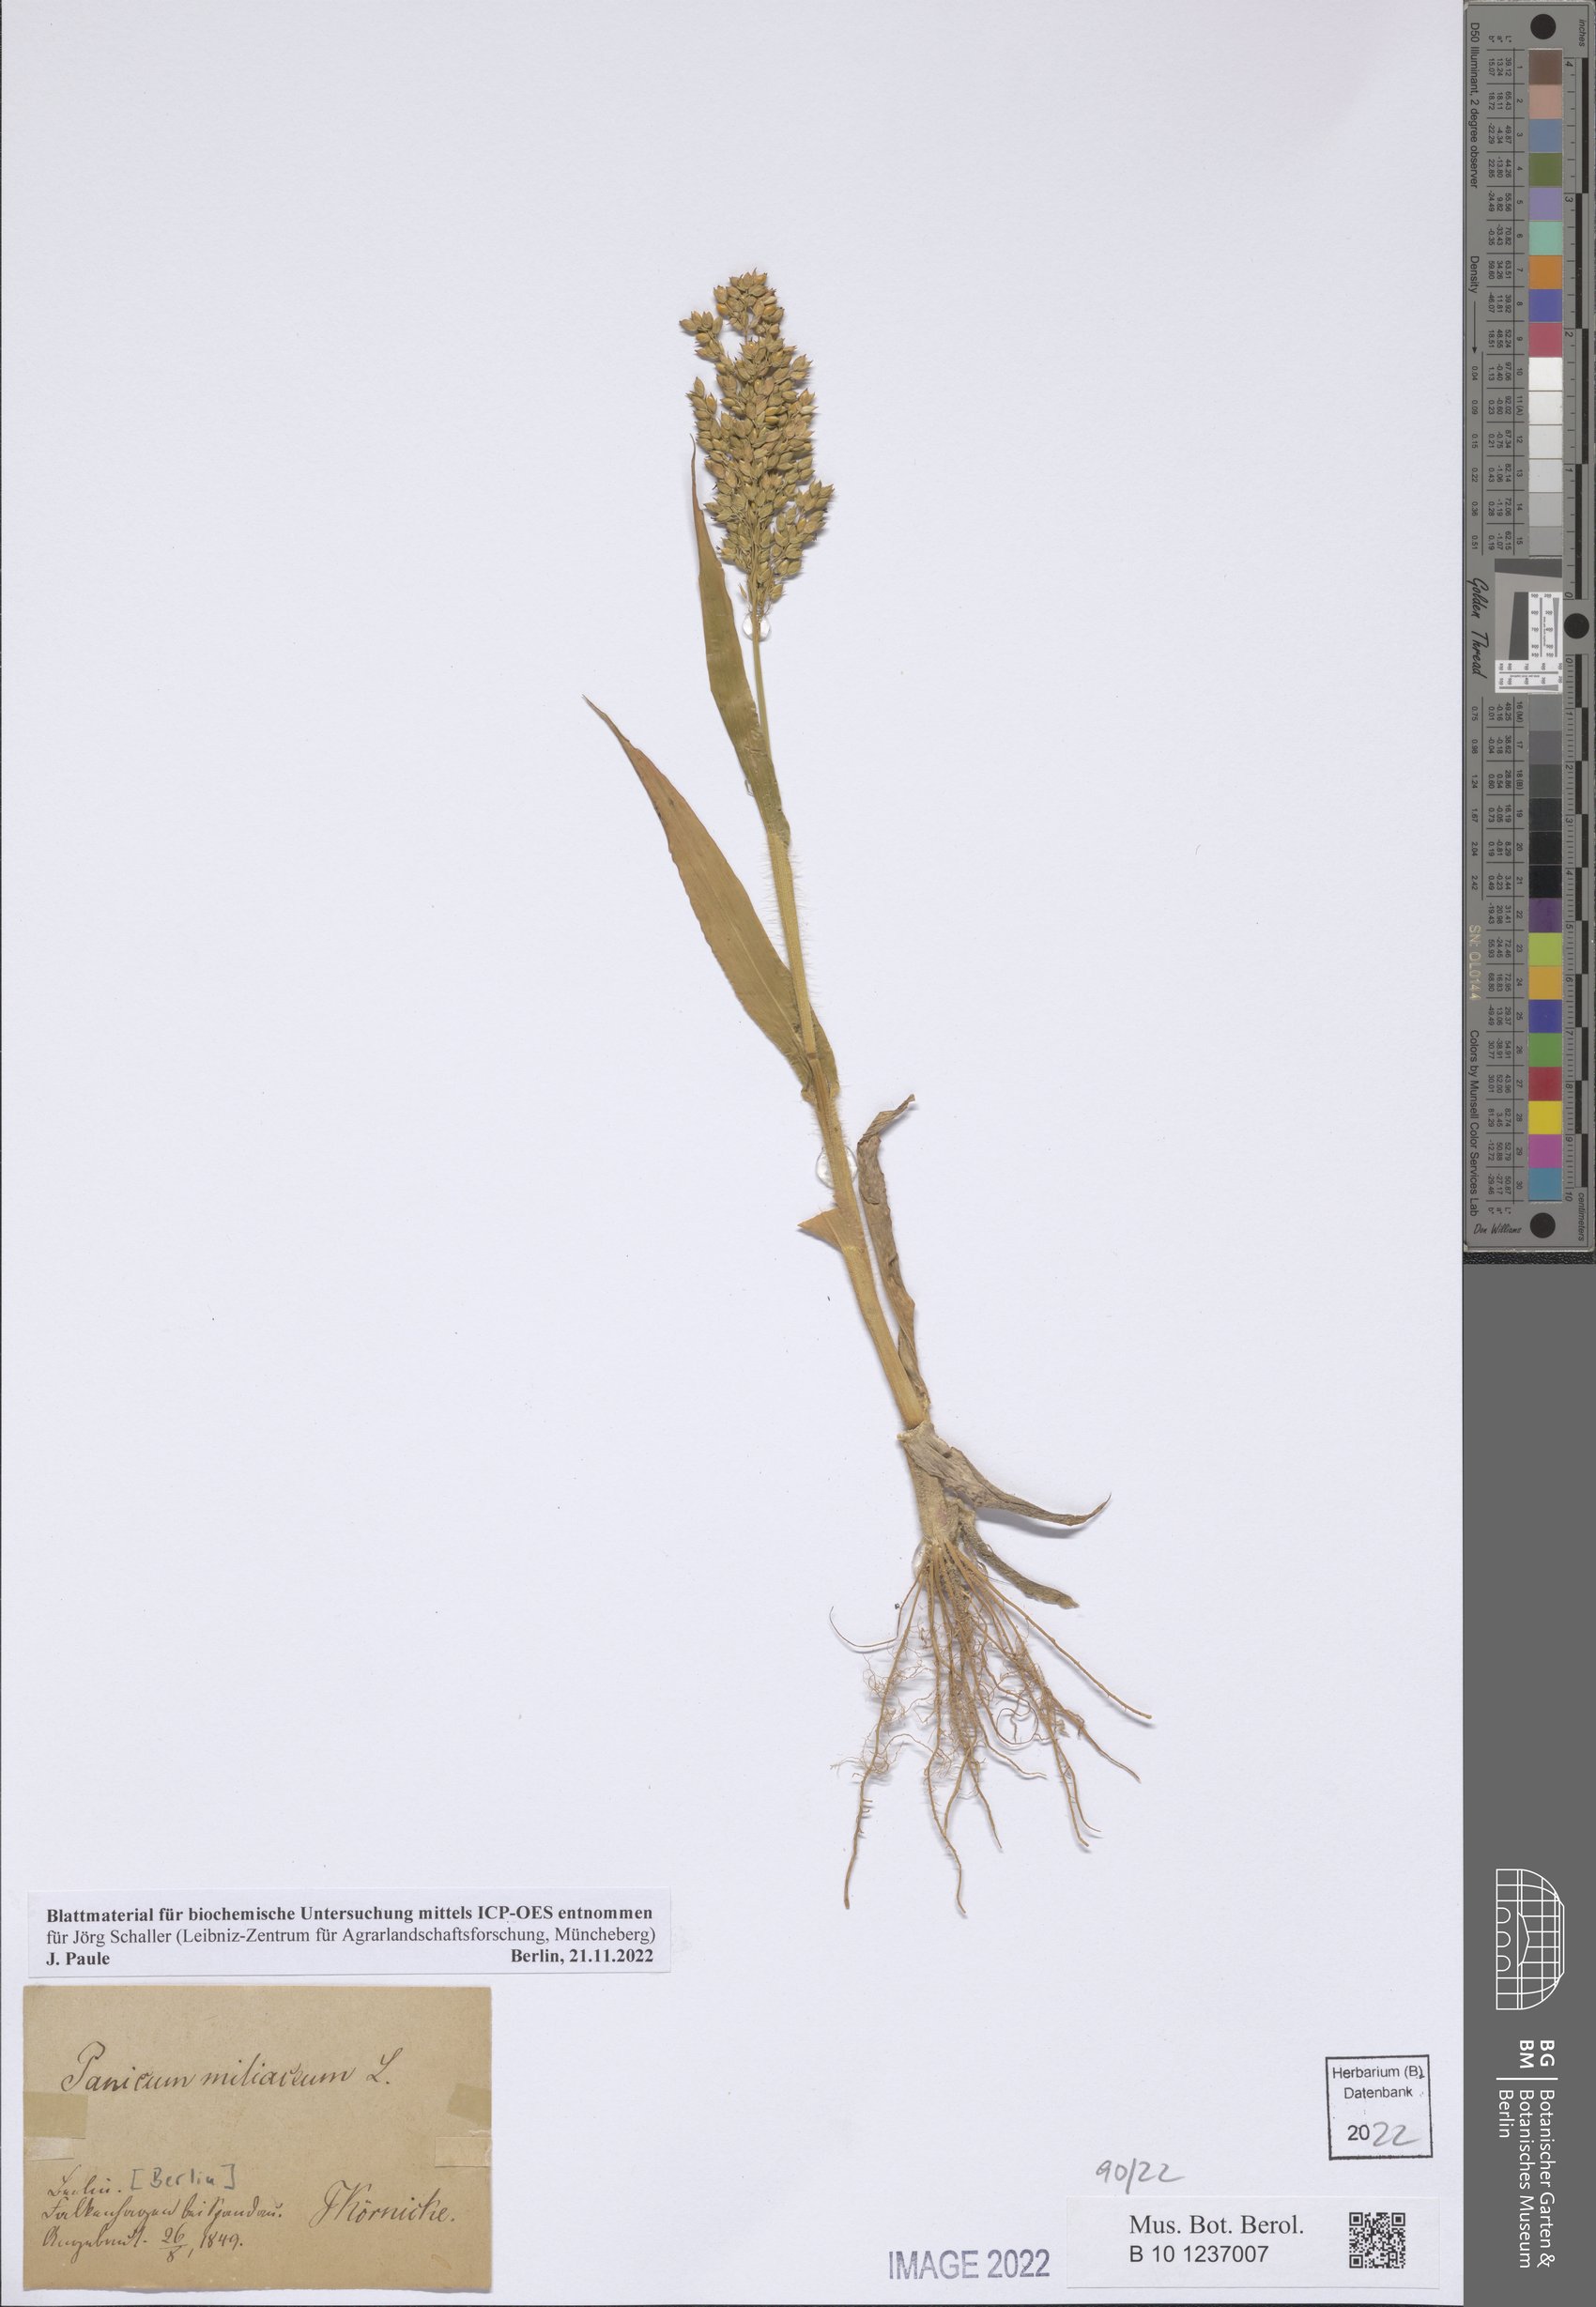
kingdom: Plantae
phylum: Tracheophyta
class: Liliopsida
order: Poales
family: Poaceae
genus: Panicum
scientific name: Panicum miliaceum
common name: Common millet
